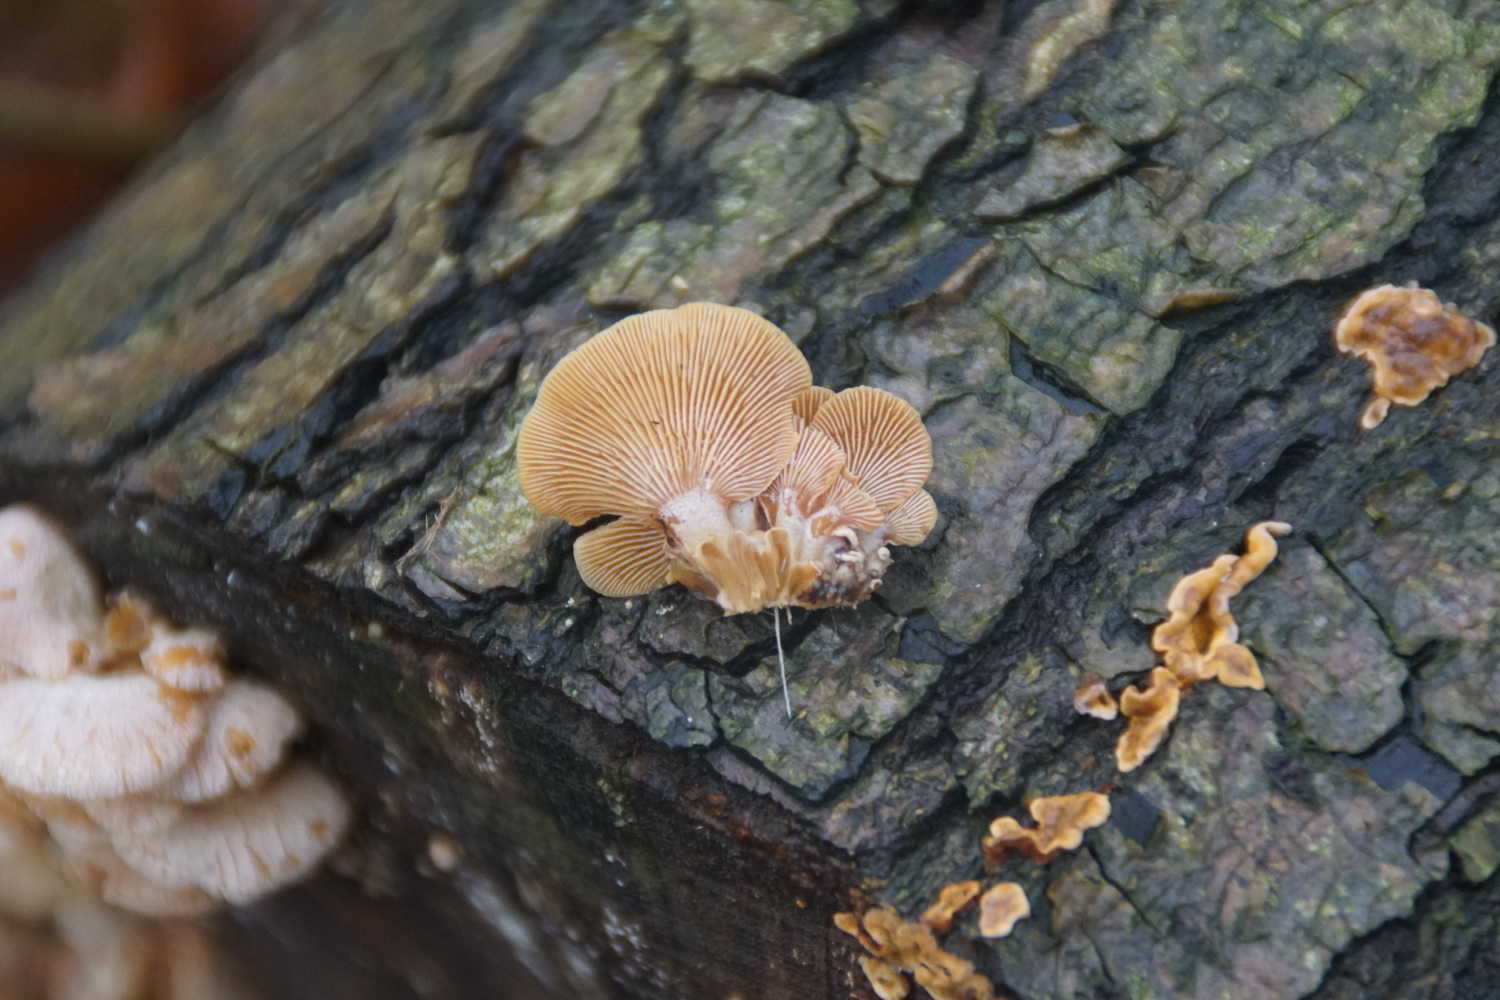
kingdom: Fungi
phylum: Basidiomycota
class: Agaricomycetes
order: Agaricales
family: Mycenaceae
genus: Panellus
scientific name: Panellus stipticus
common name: kliddet epaulethat
